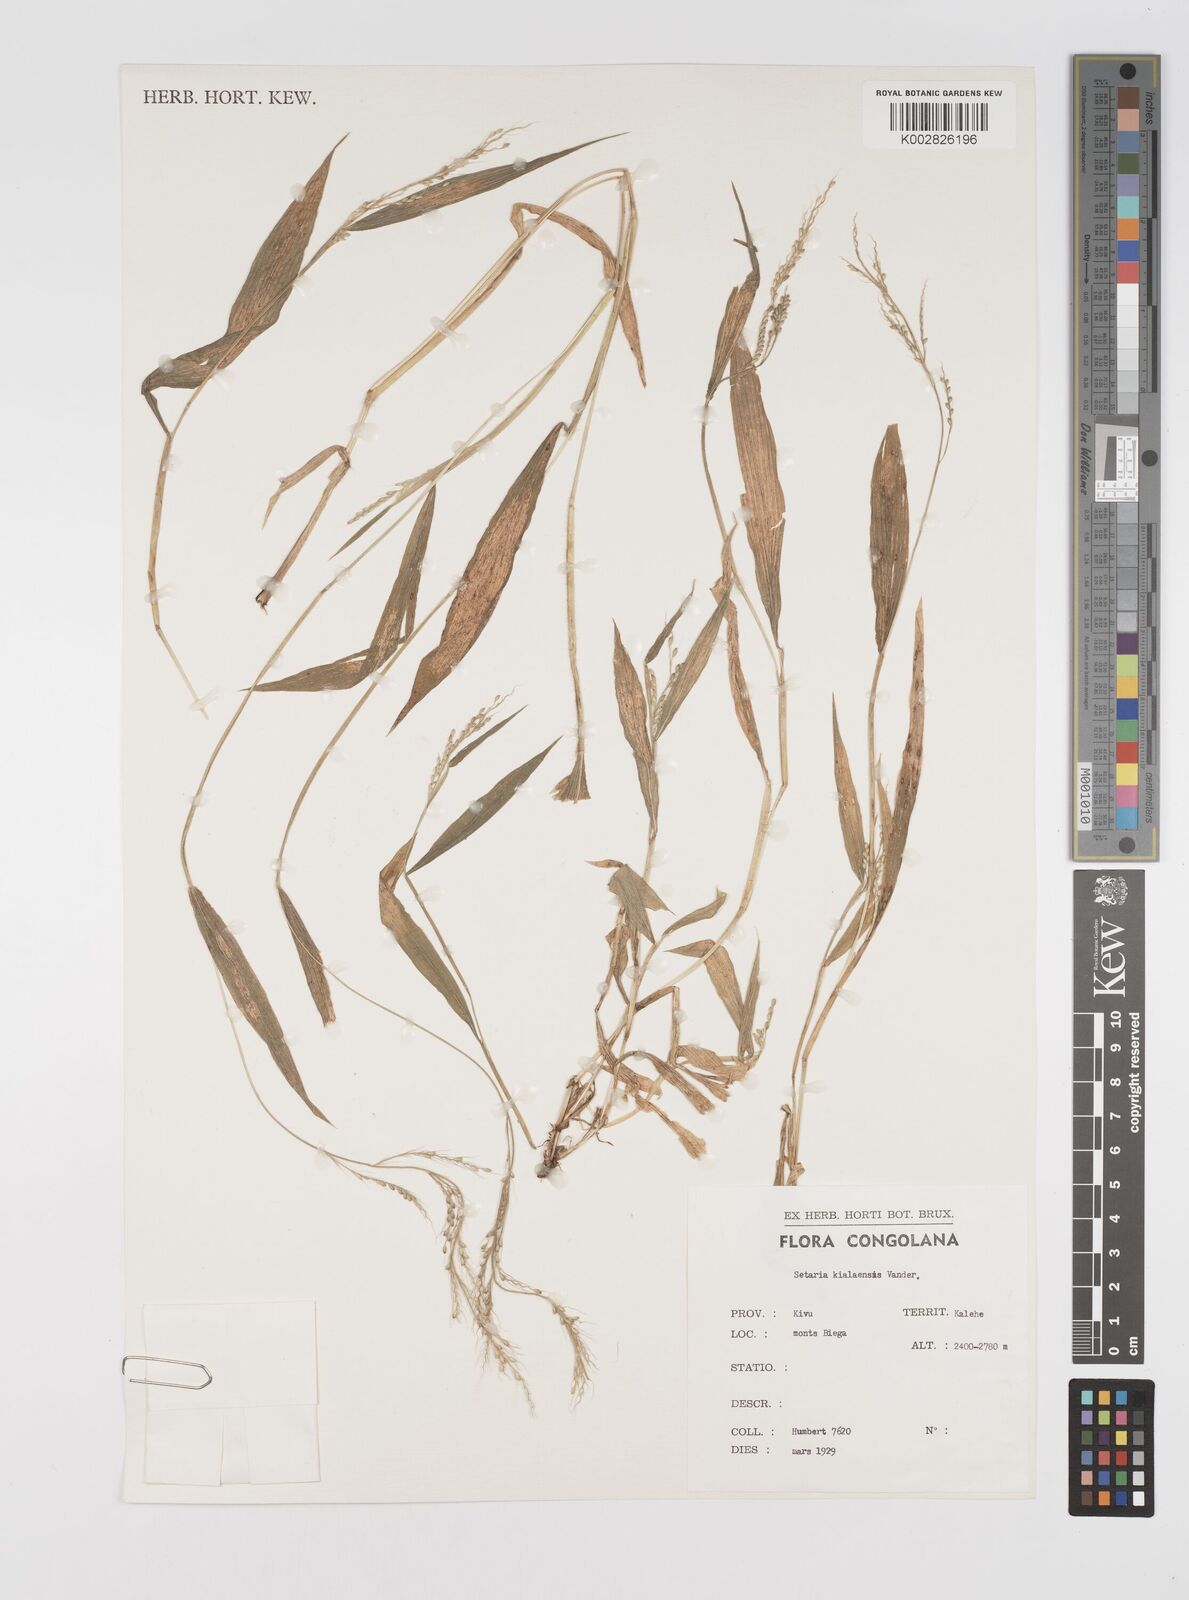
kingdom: Plantae
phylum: Tracheophyta
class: Liliopsida
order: Poales
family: Poaceae
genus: Setaria
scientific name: Setaria homonyma
